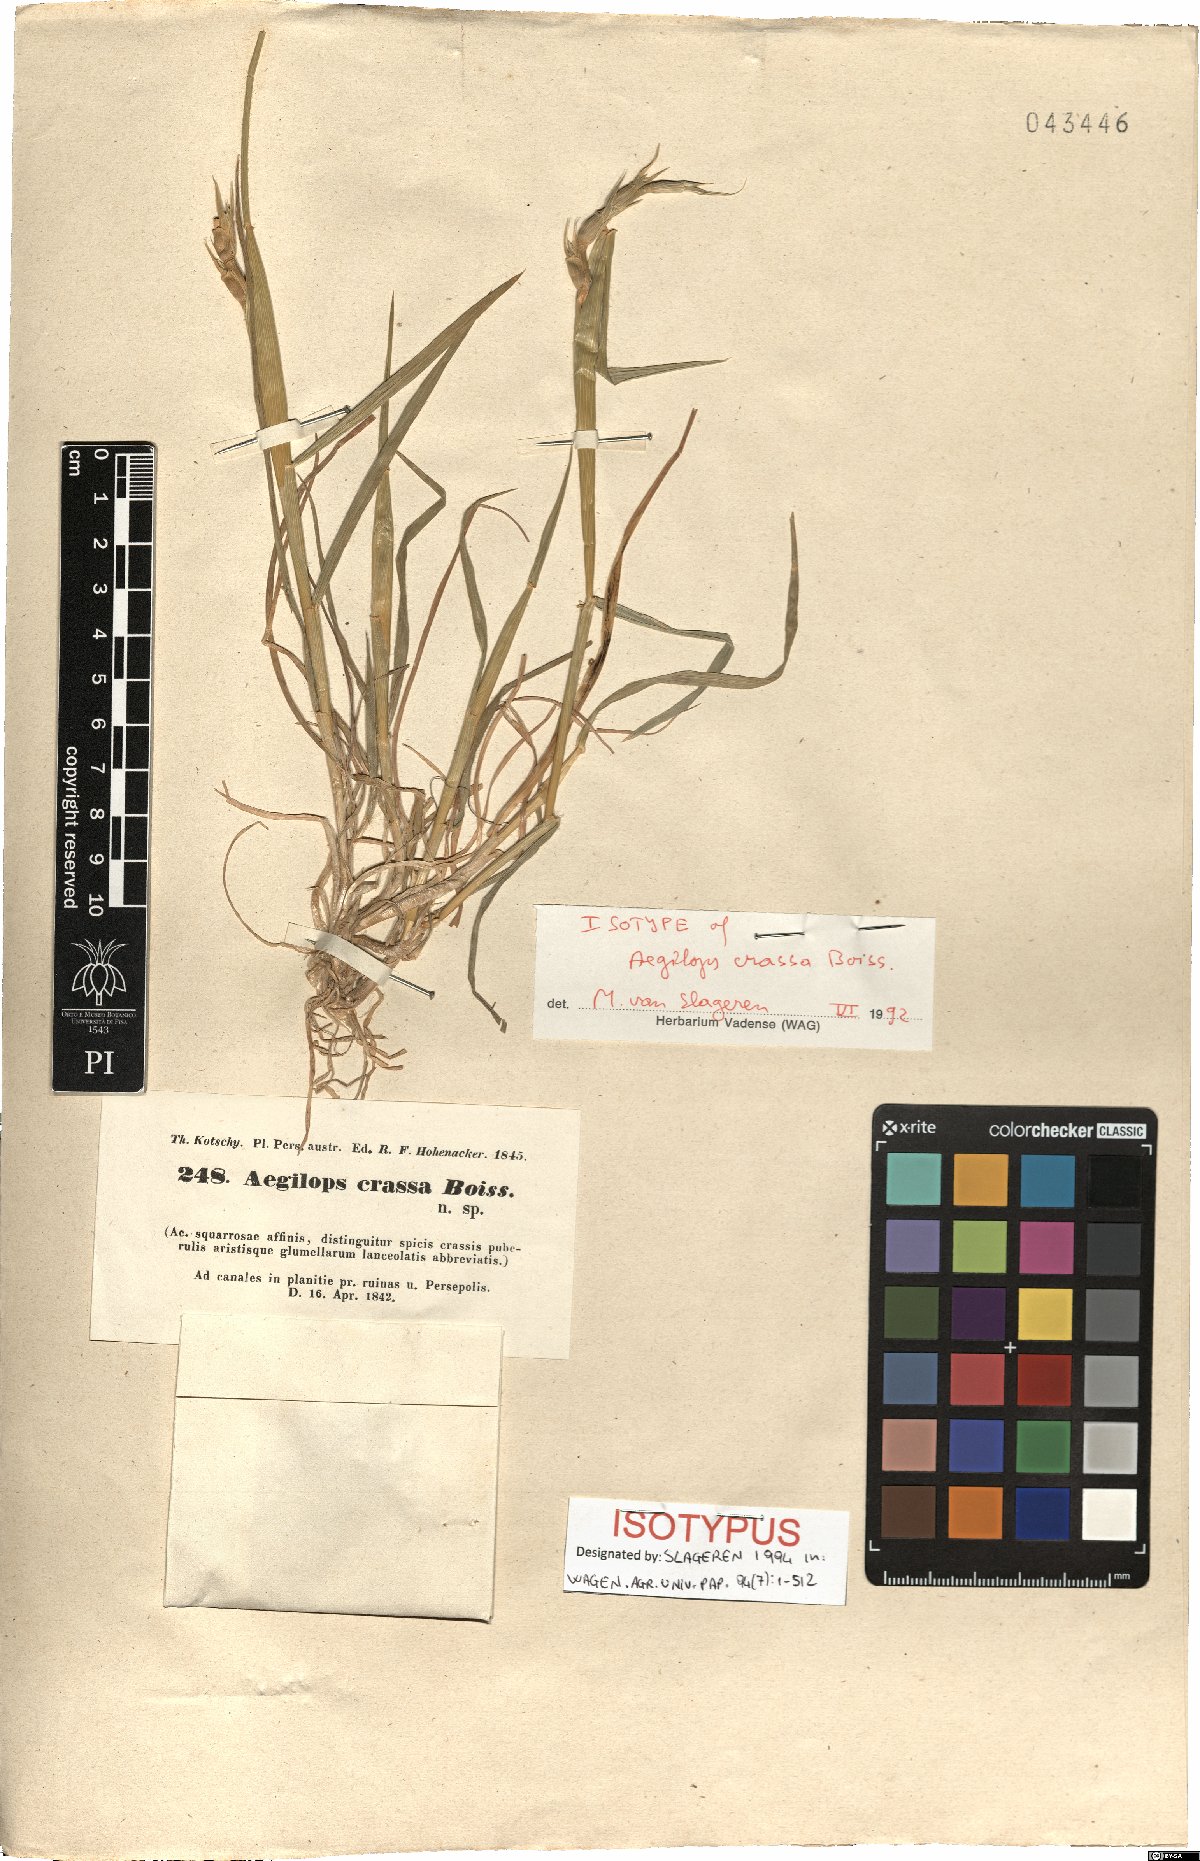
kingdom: Plantae
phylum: Tracheophyta
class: Liliopsida
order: Poales
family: Poaceae
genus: Aegilops
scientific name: Aegilops crassa
